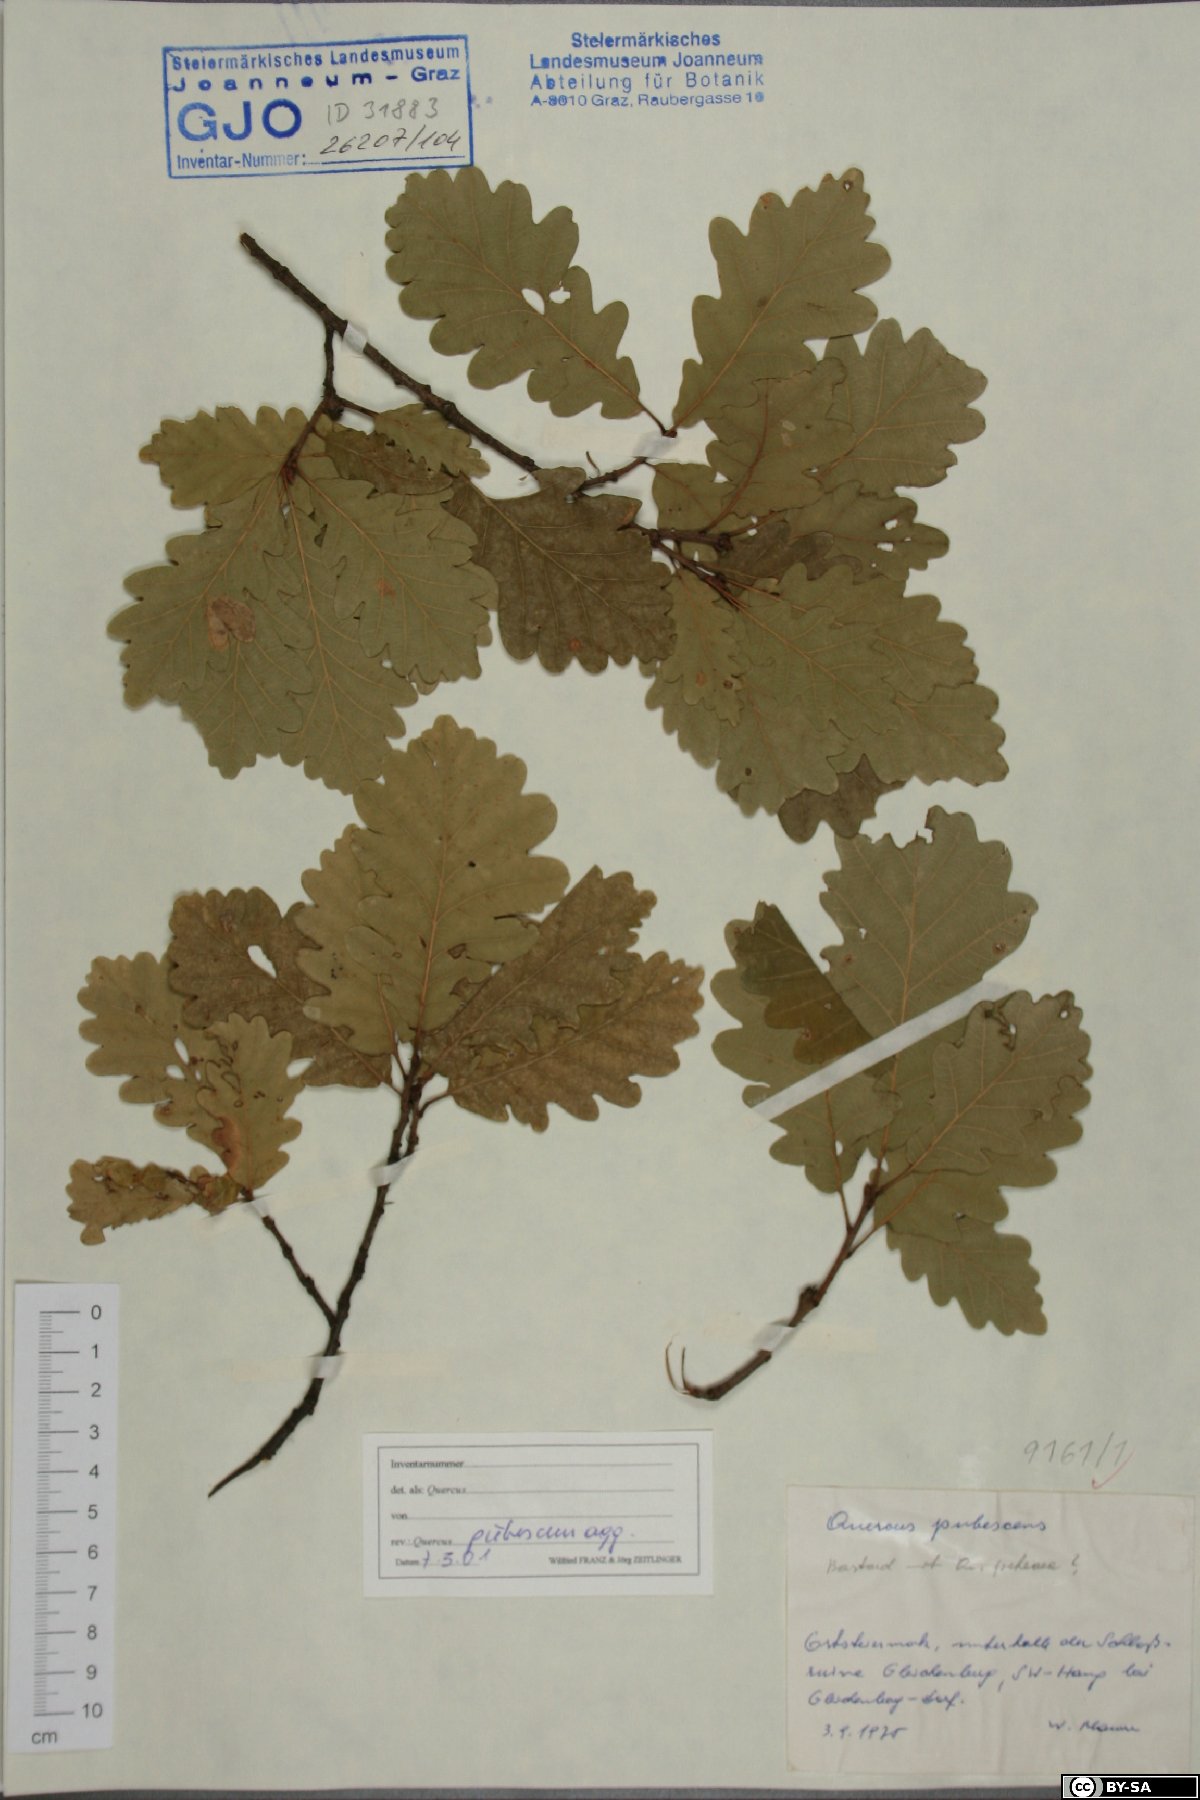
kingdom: Plantae
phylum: Tracheophyta
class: Magnoliopsida
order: Fagales
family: Fagaceae
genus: Quercus
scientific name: Quercus pubescens
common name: Downy oak
